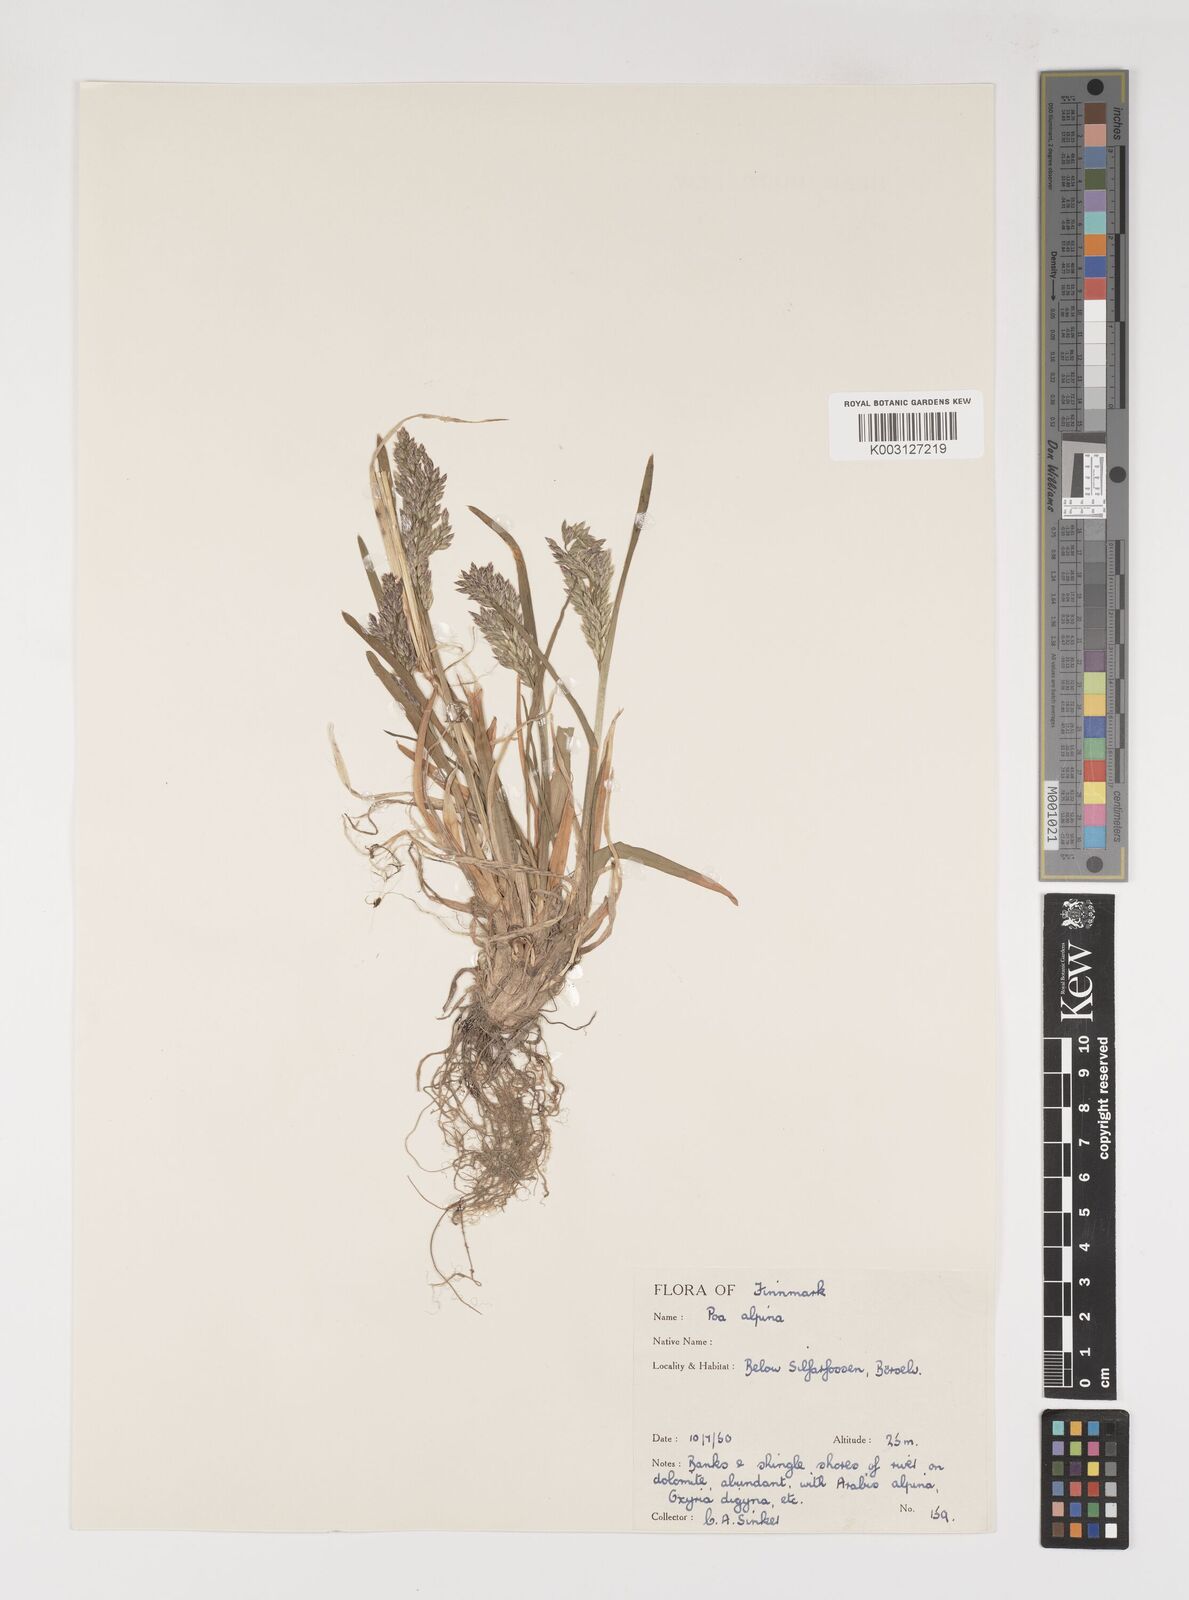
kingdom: Plantae
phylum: Tracheophyta
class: Liliopsida
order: Poales
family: Poaceae
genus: Poa
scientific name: Poa alpina
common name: Alpine bluegrass
